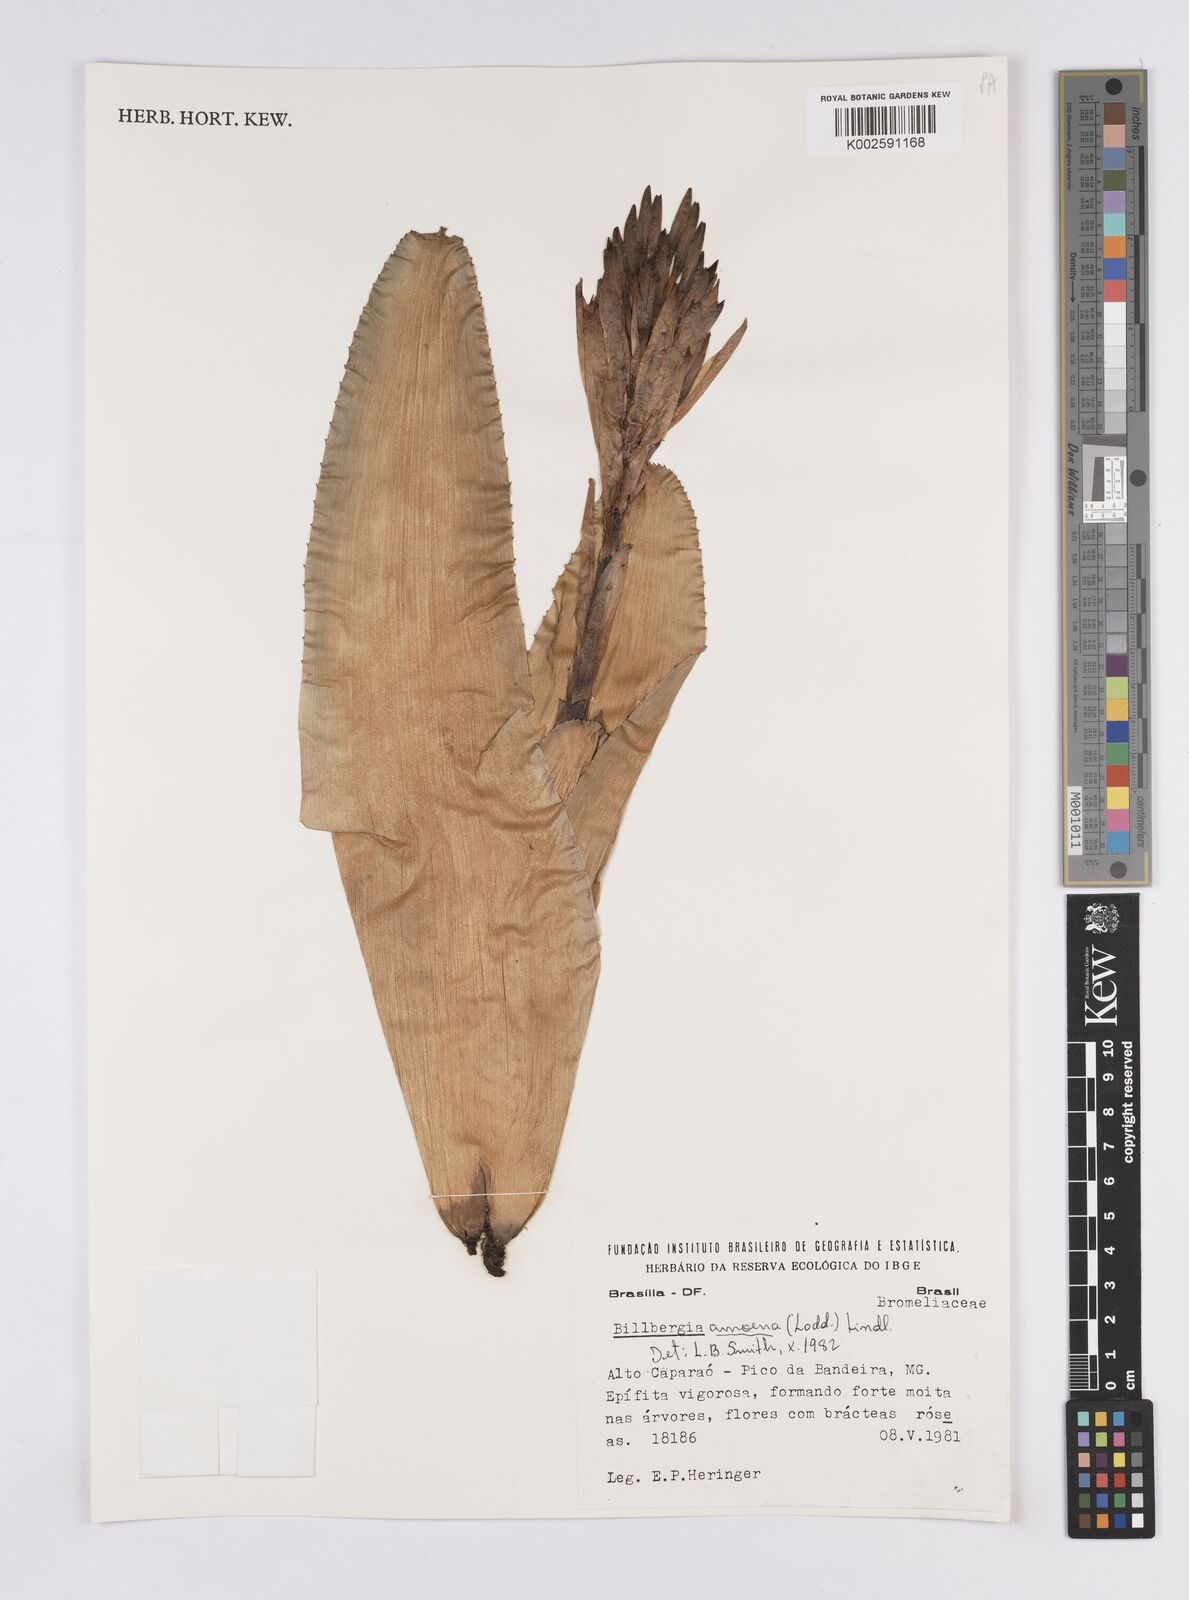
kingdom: Plantae
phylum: Tracheophyta
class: Liliopsida
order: Poales
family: Bromeliaceae
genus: Billbergia
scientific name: Billbergia amoena
